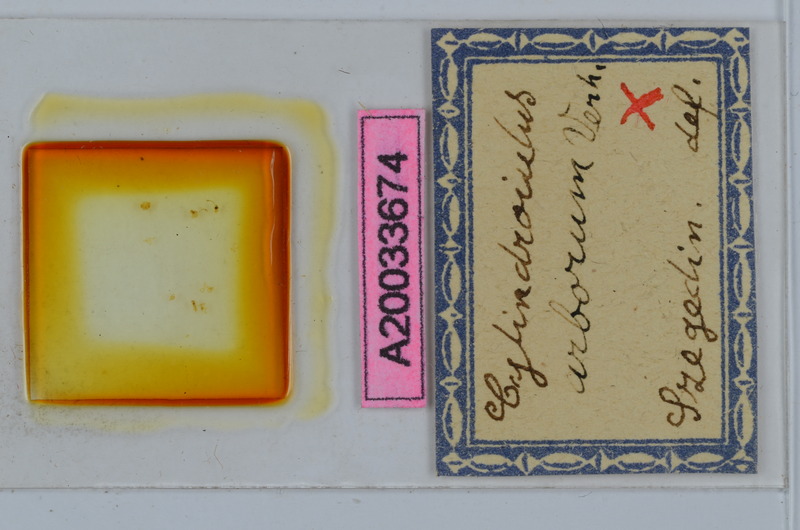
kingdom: Animalia
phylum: Arthropoda
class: Diplopoda
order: Julida
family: Julidae
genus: Cylindroiulus
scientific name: Cylindroiulus arborum
